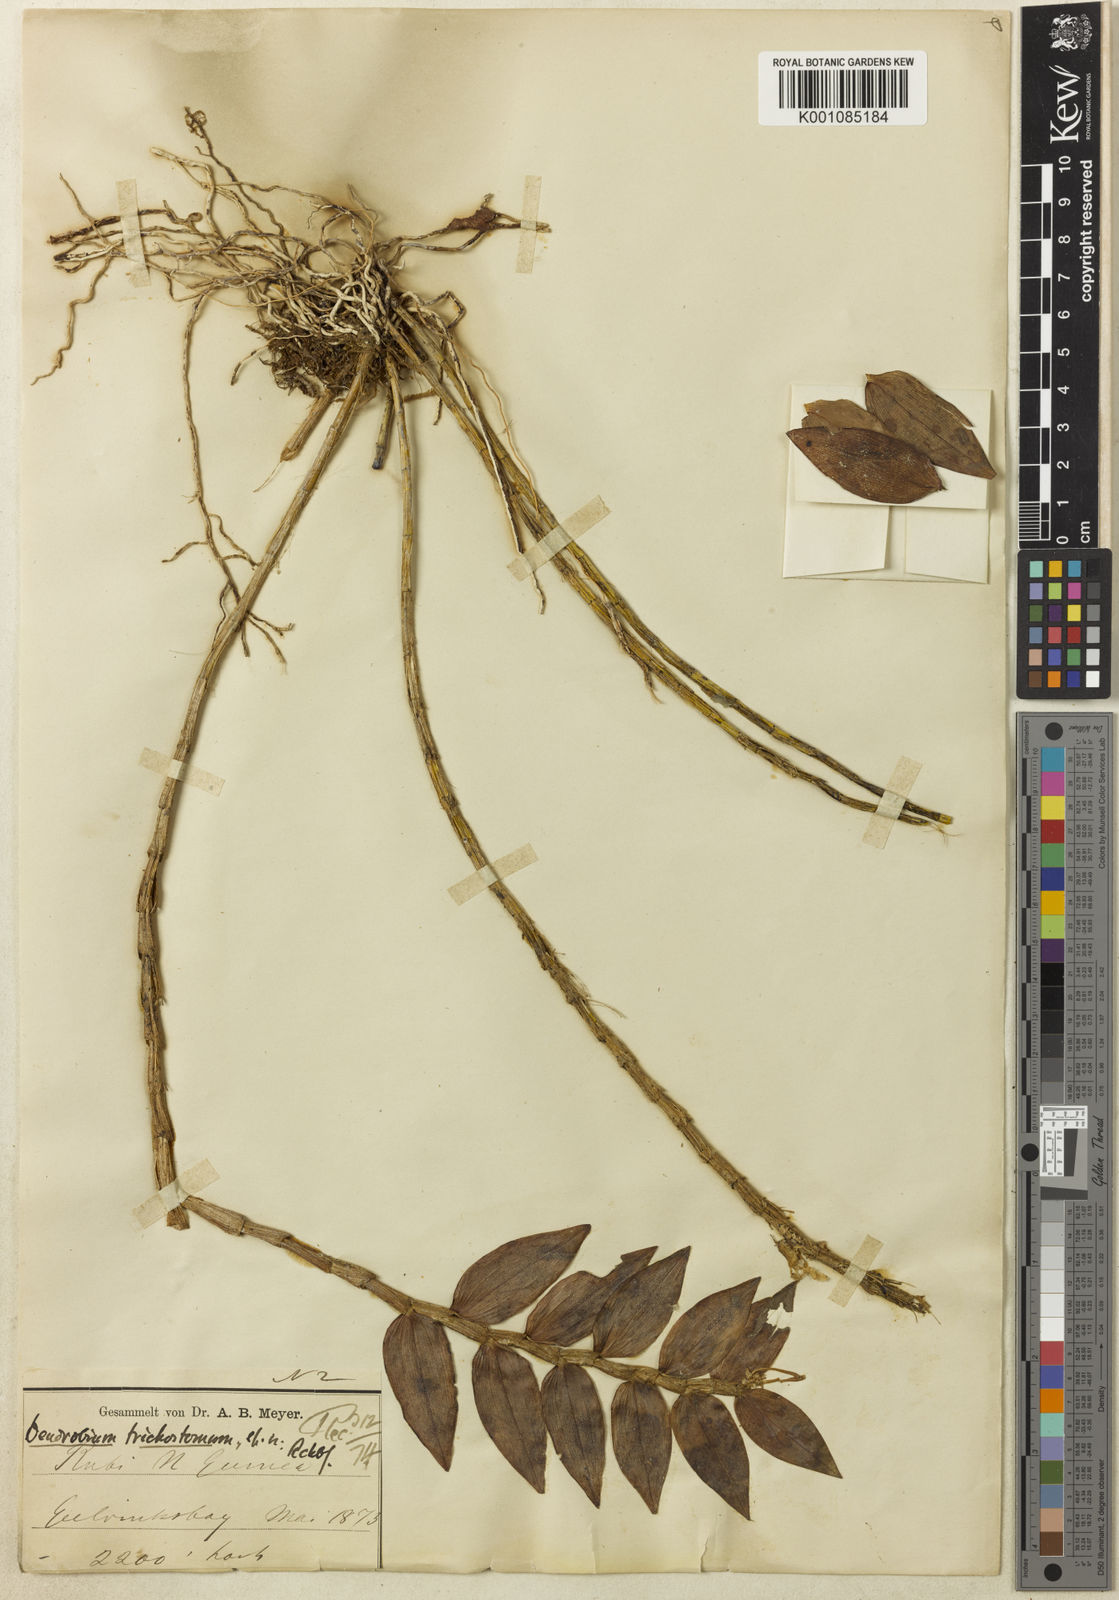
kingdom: Plantae
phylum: Tracheophyta
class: Liliopsida
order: Asparagales
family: Orchidaceae
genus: Dendrobium
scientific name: Dendrobium trichostomum
